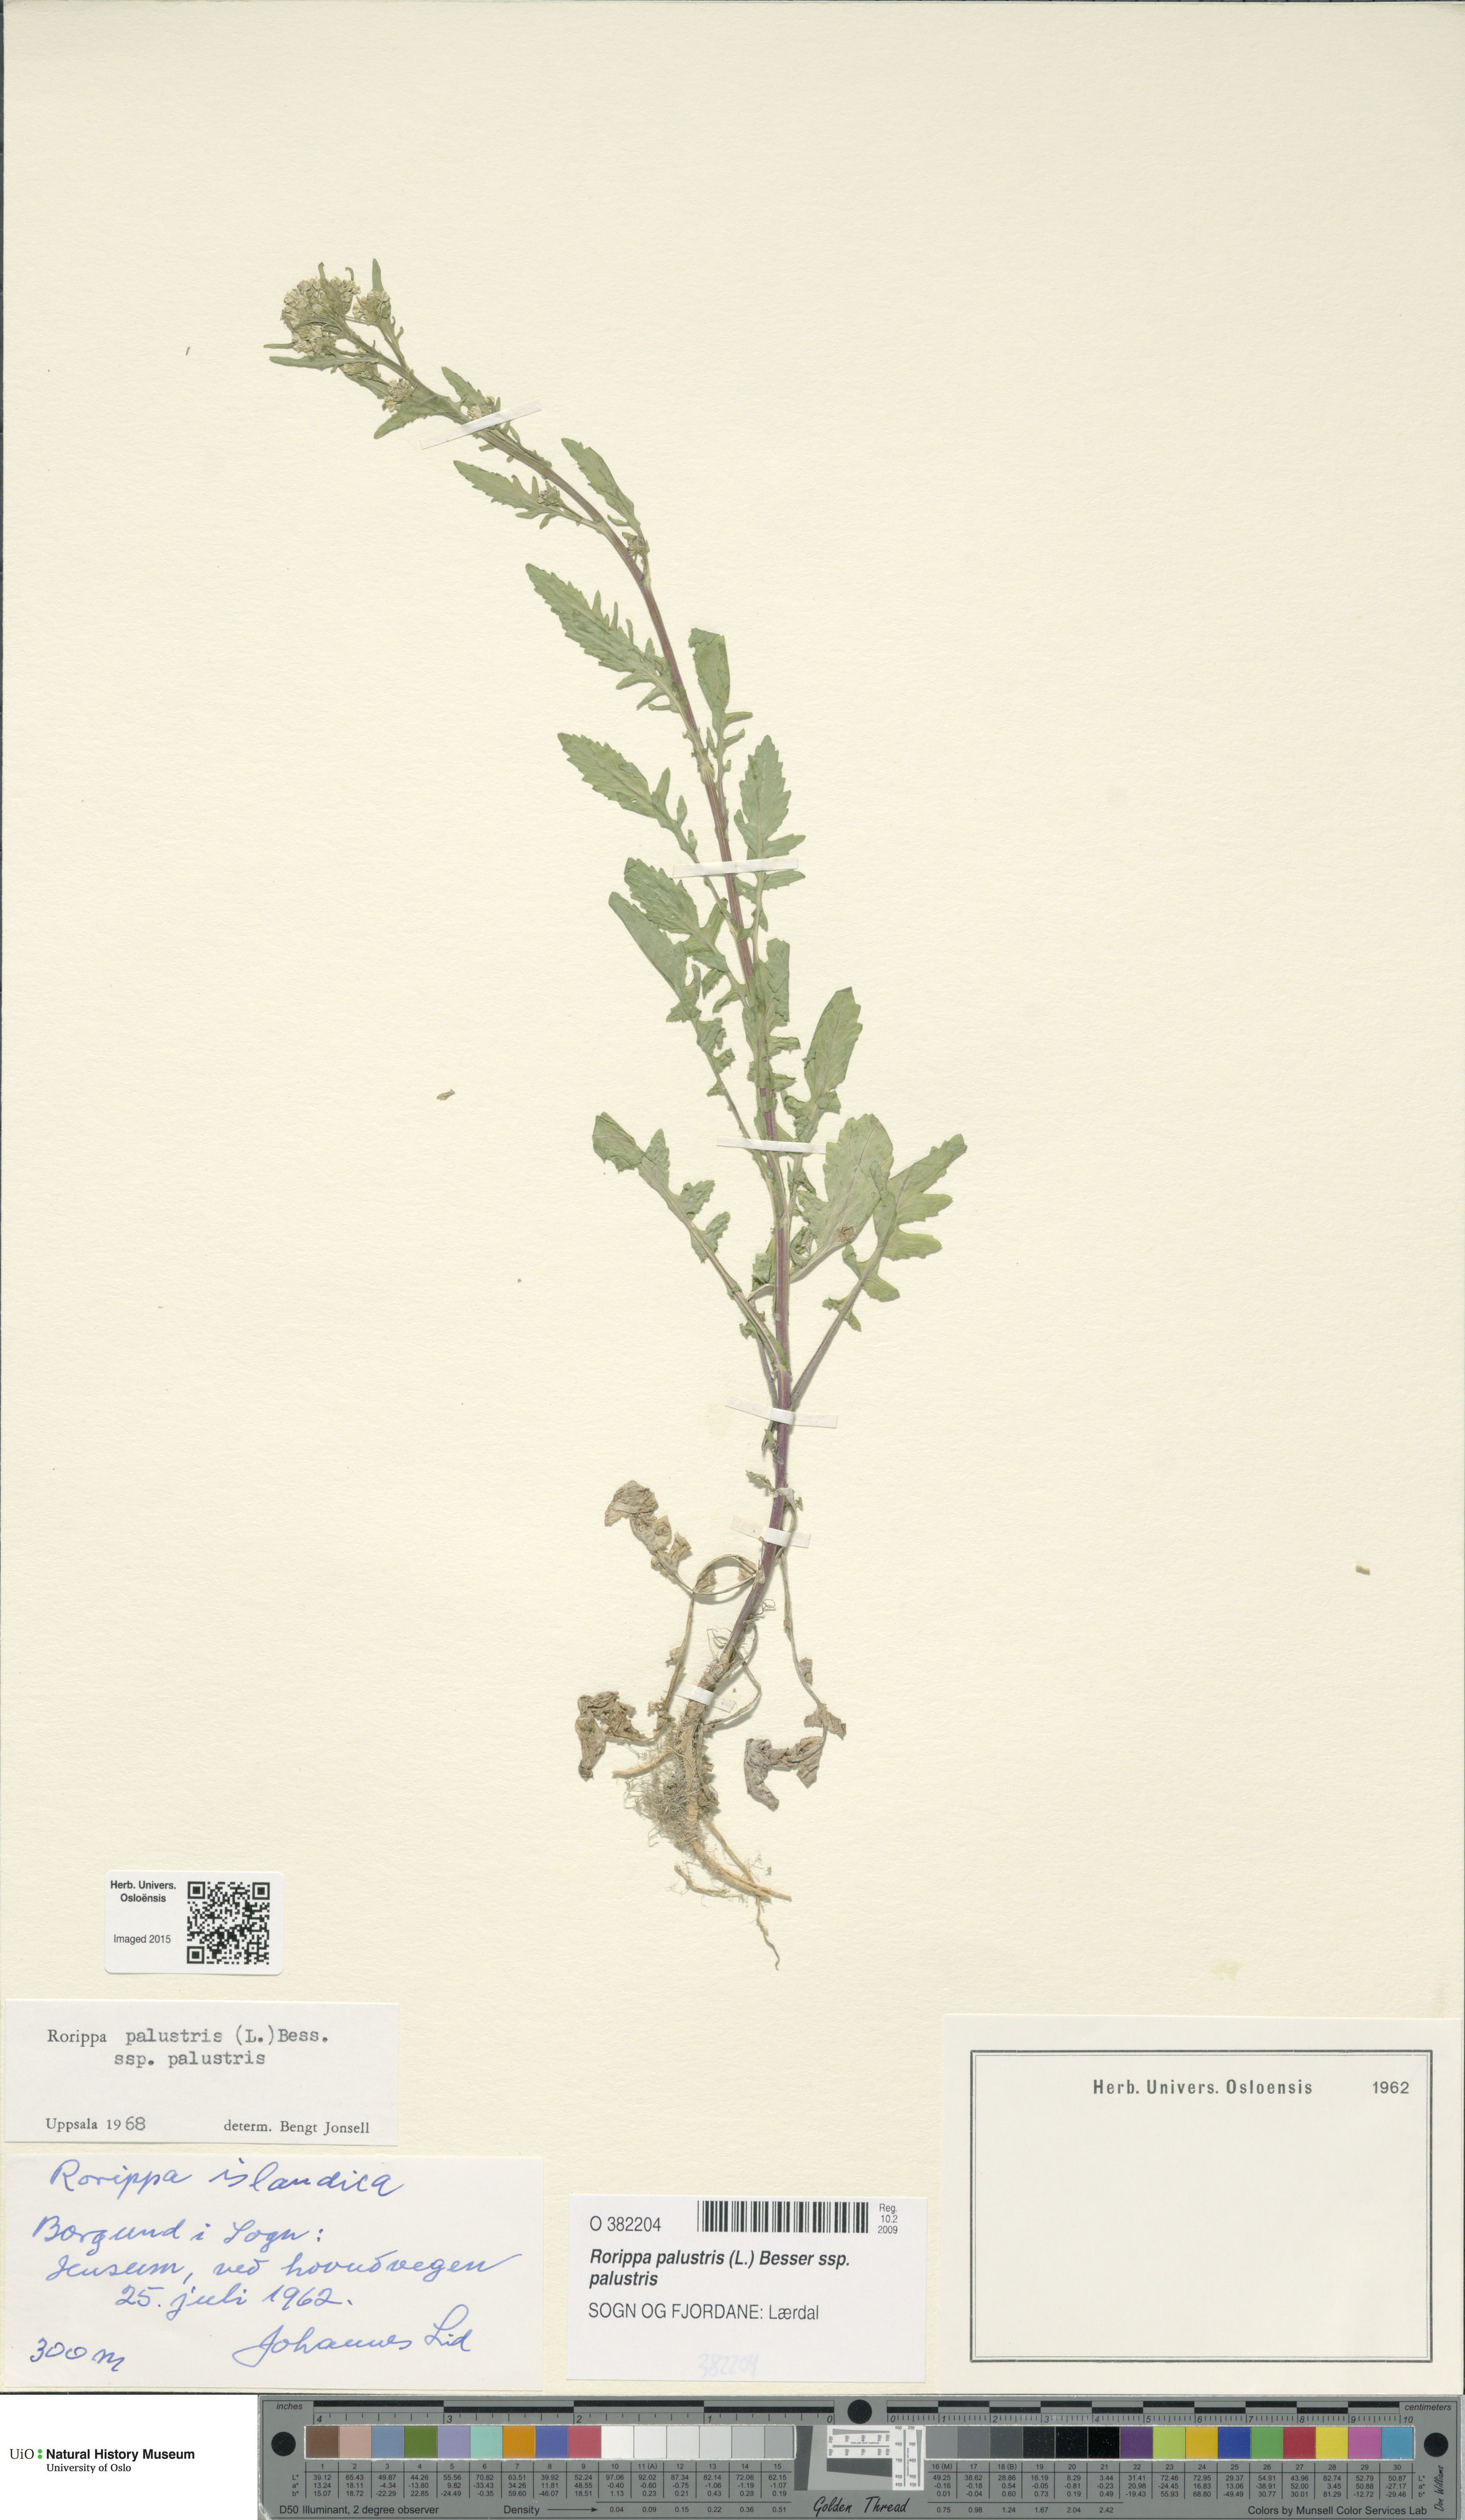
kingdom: Plantae
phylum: Tracheophyta
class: Magnoliopsida
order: Brassicales
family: Brassicaceae
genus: Rorippa
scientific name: Rorippa palustris
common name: Marsh yellow-cress
